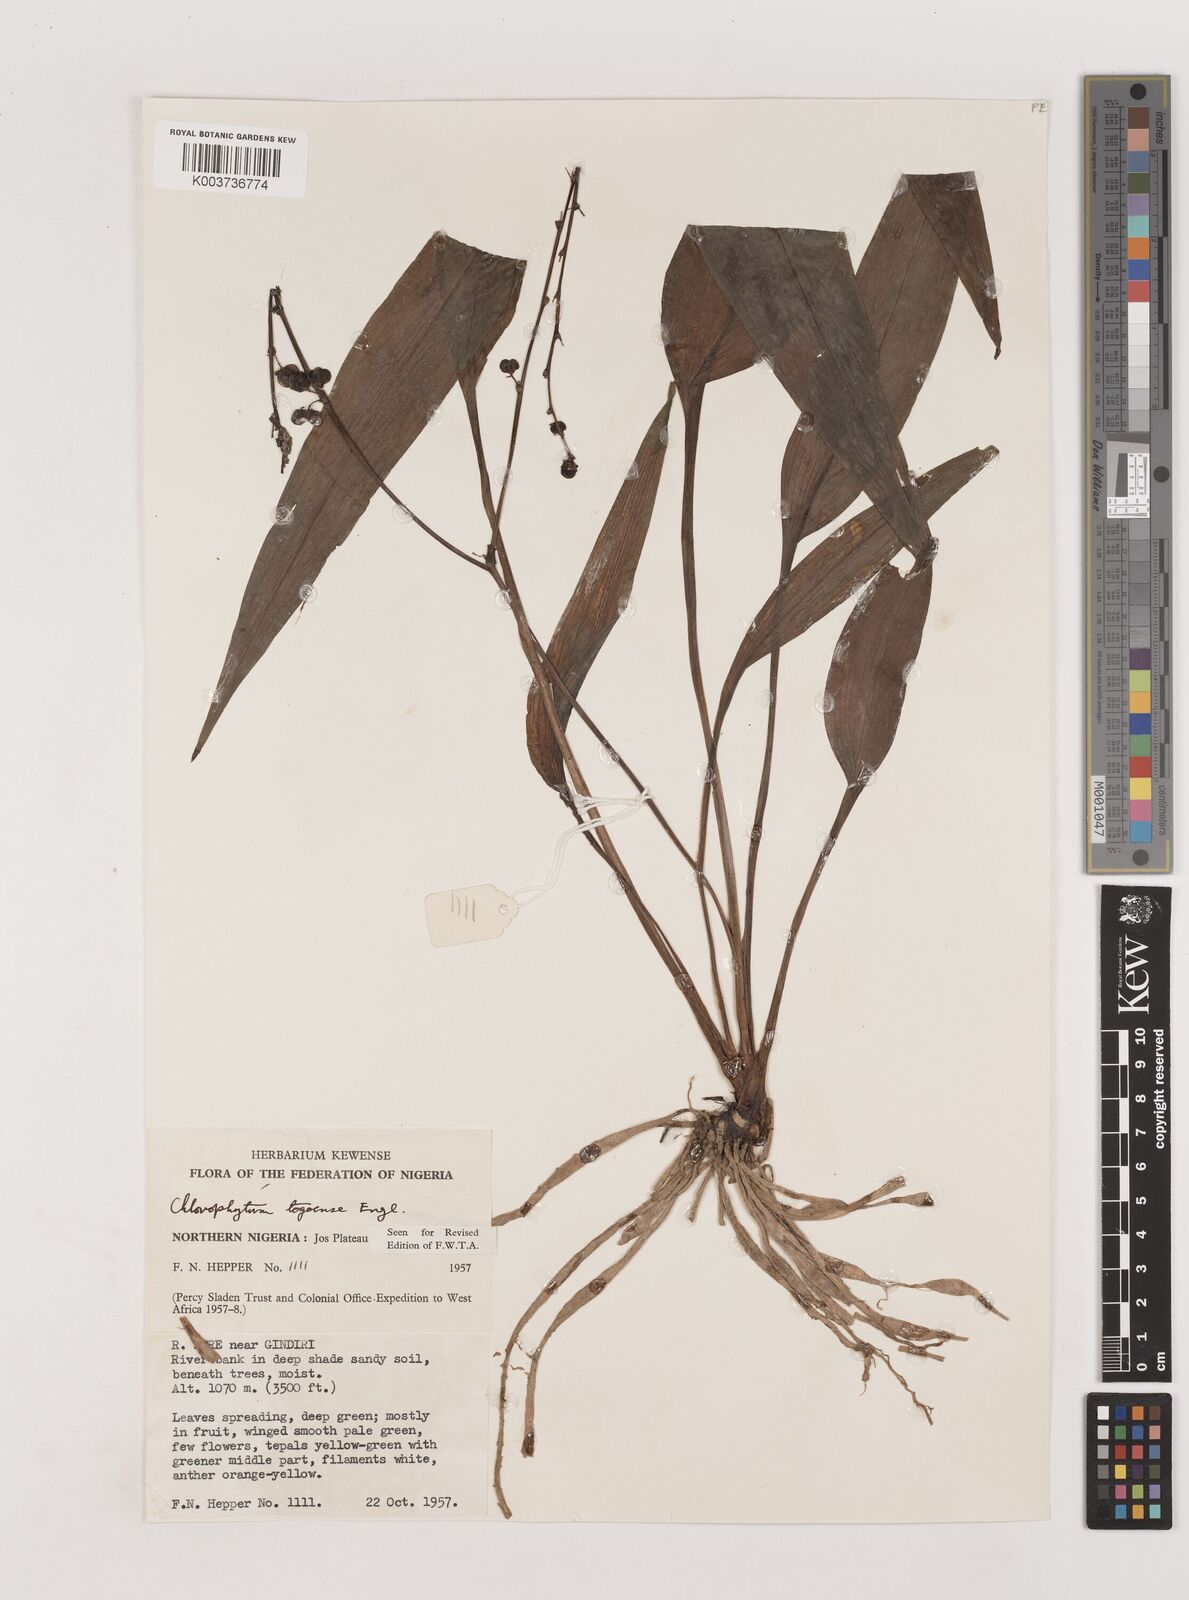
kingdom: Plantae
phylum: Tracheophyta
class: Liliopsida
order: Asparagales
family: Asparagaceae
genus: Chlorophytum
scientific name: Chlorophytum lancifolium
